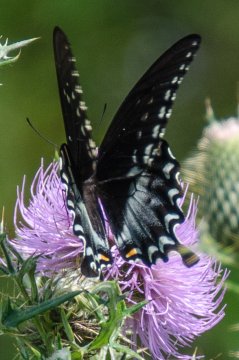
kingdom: Animalia
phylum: Arthropoda
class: Insecta
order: Lepidoptera
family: Papilionidae
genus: Pterourus
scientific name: Pterourus troilus
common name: Spicebush Swallowtail
